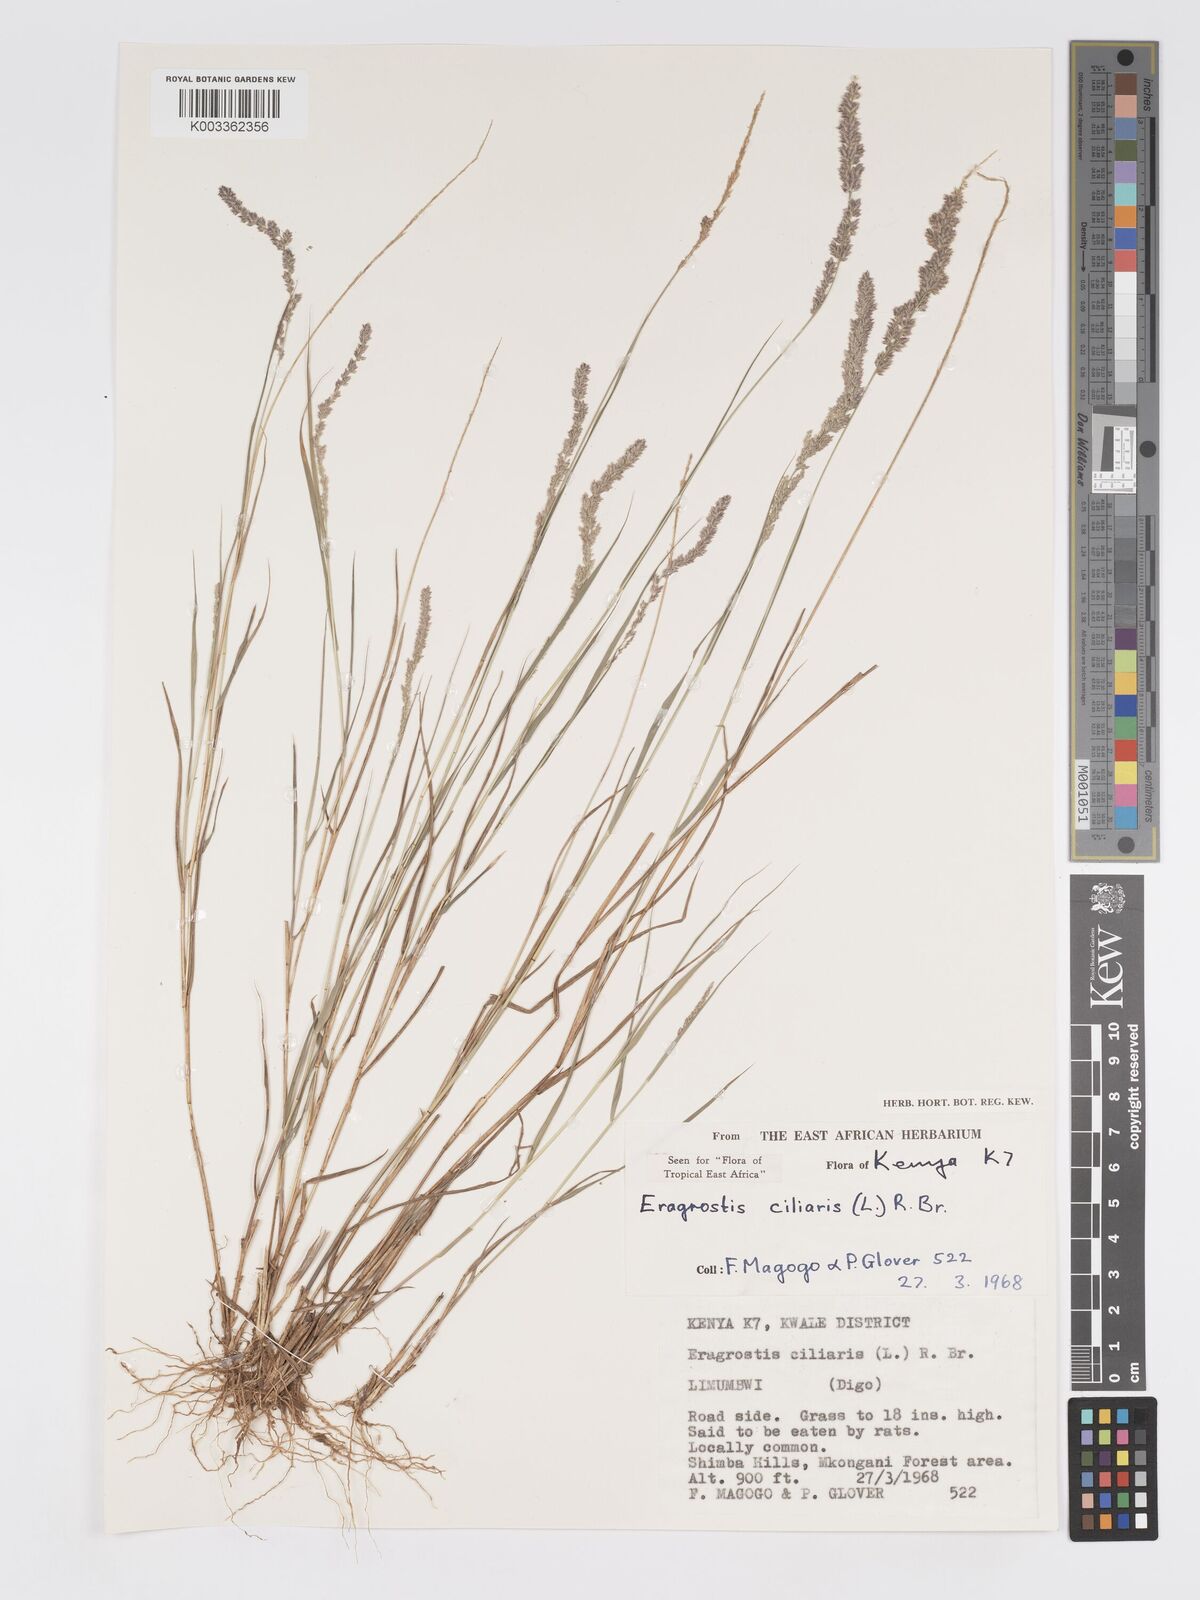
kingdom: Plantae
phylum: Tracheophyta
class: Liliopsida
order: Poales
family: Poaceae
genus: Eragrostis
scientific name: Eragrostis ciliaris
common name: Gophertail lovegrass
